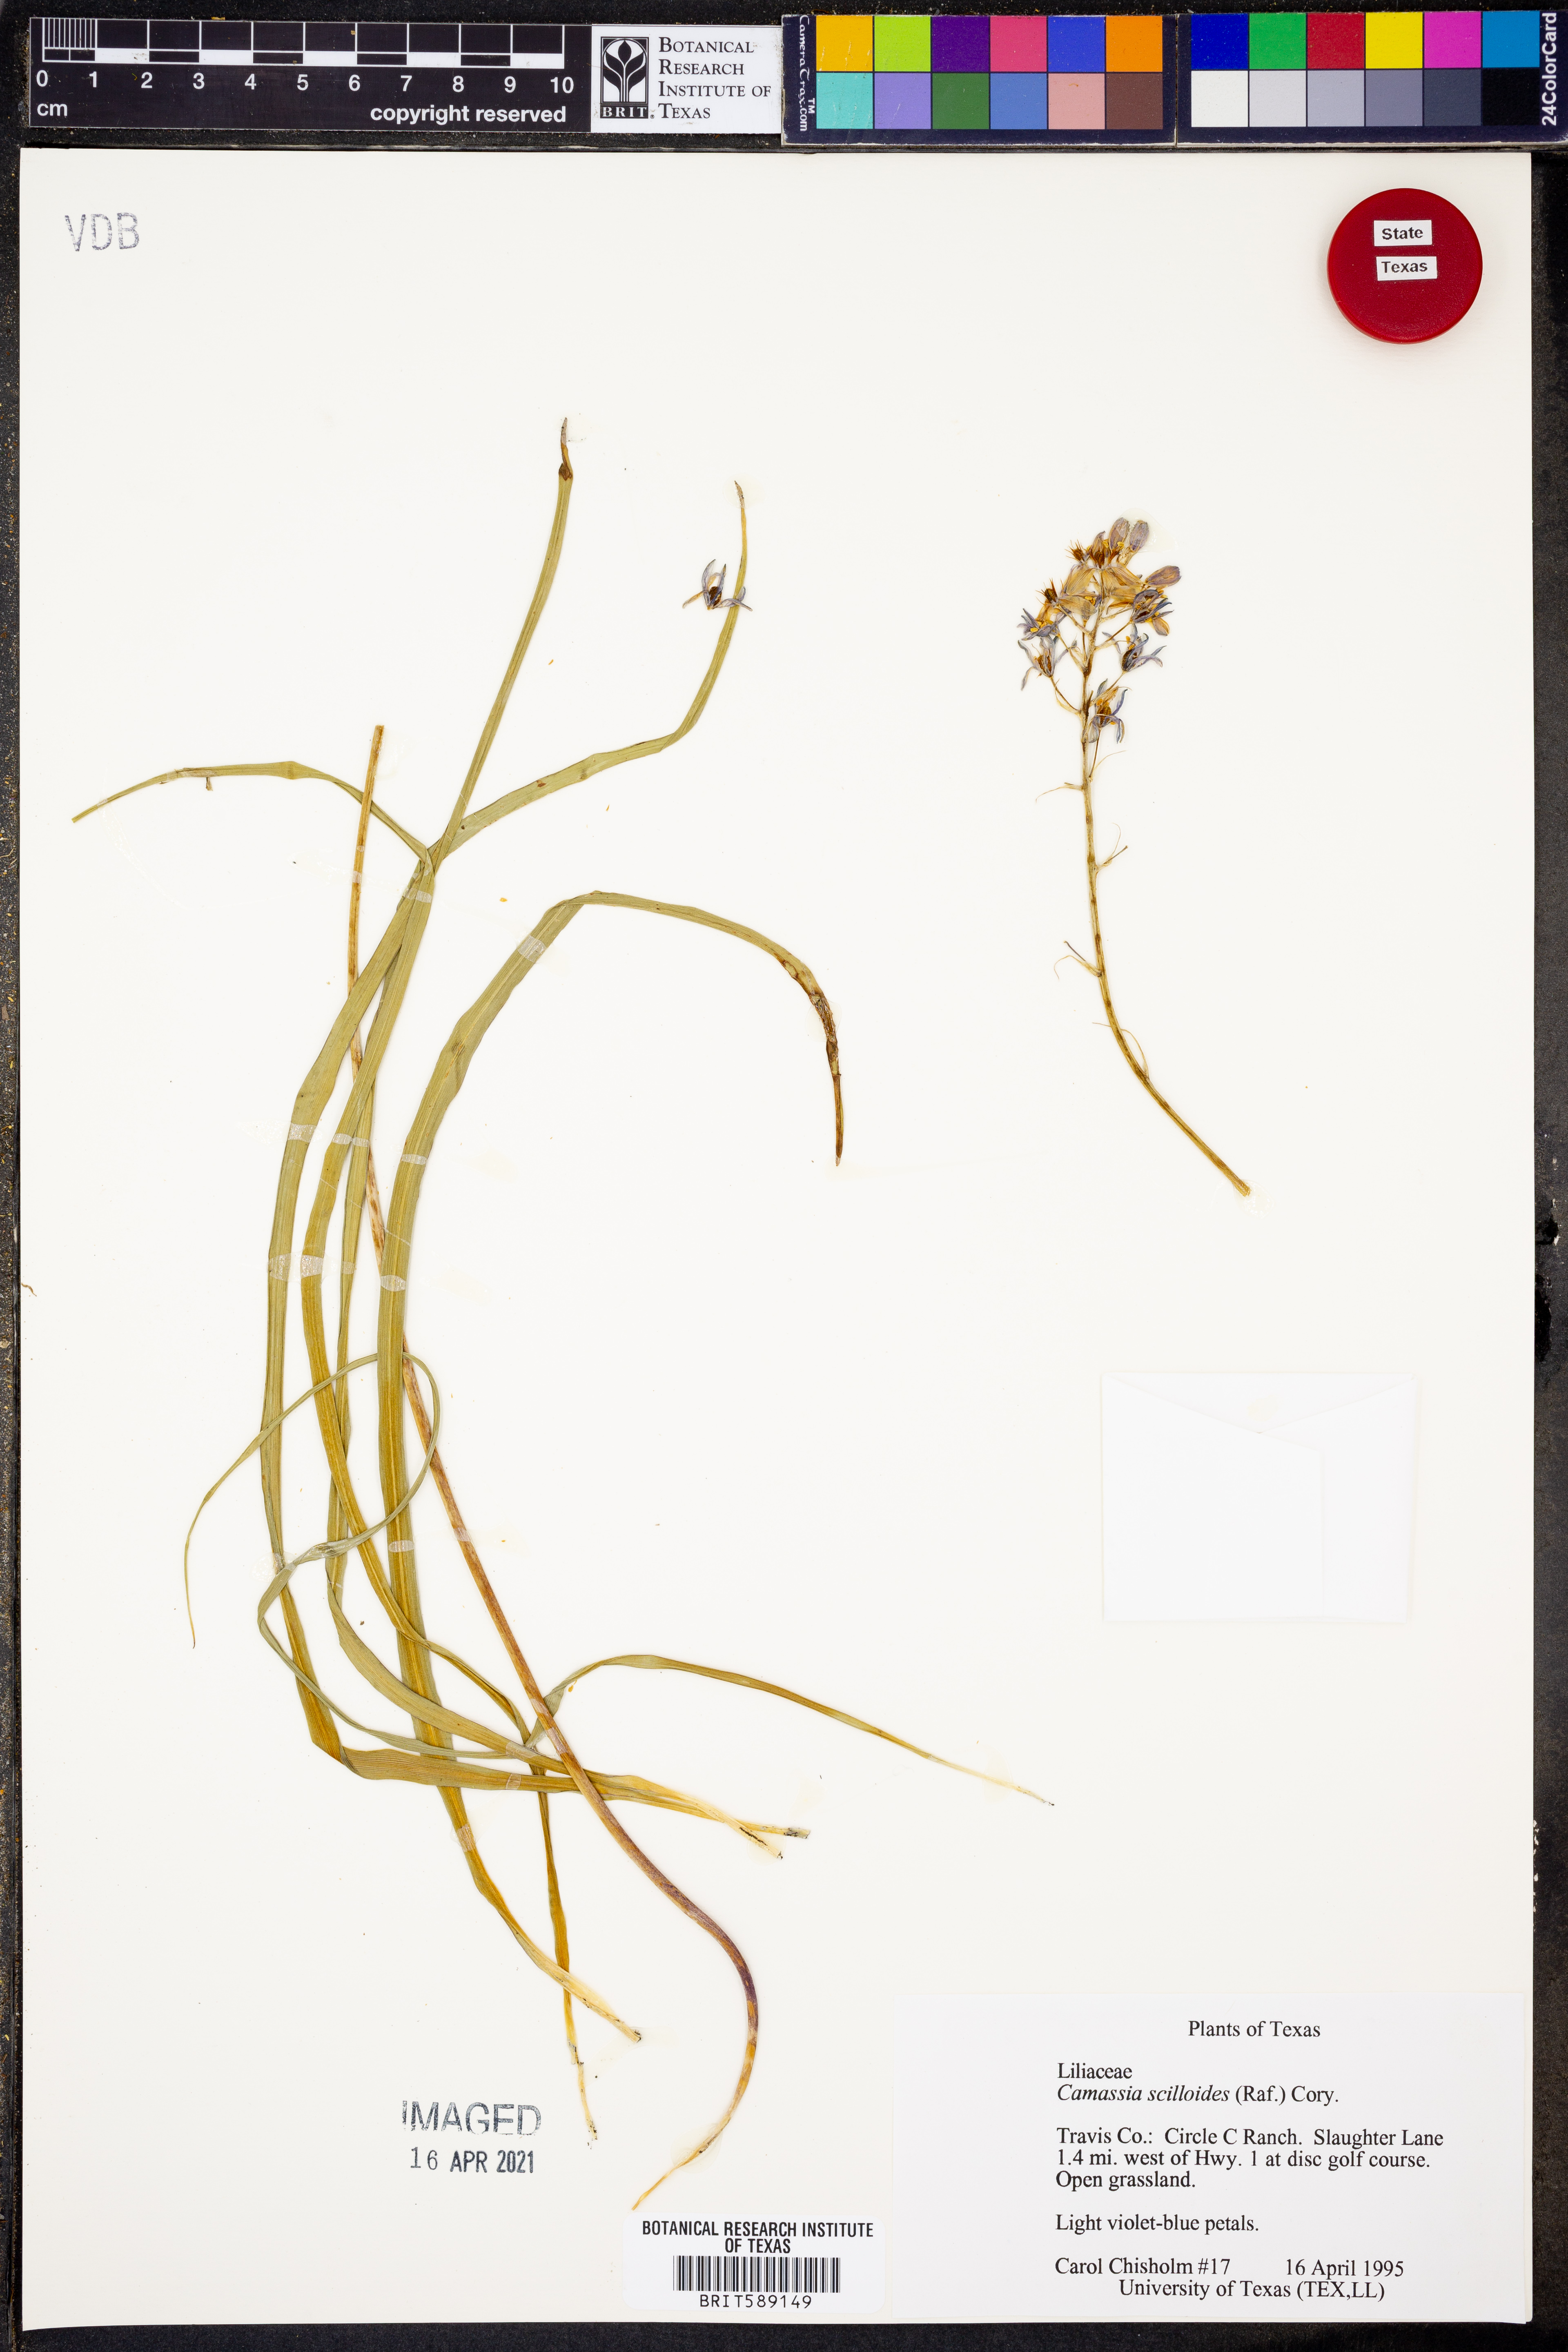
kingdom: Plantae
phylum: Tracheophyta
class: Liliopsida
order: Asparagales
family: Asparagaceae
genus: Camassia
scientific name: Camassia scilloides
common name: Wild hyacinth
